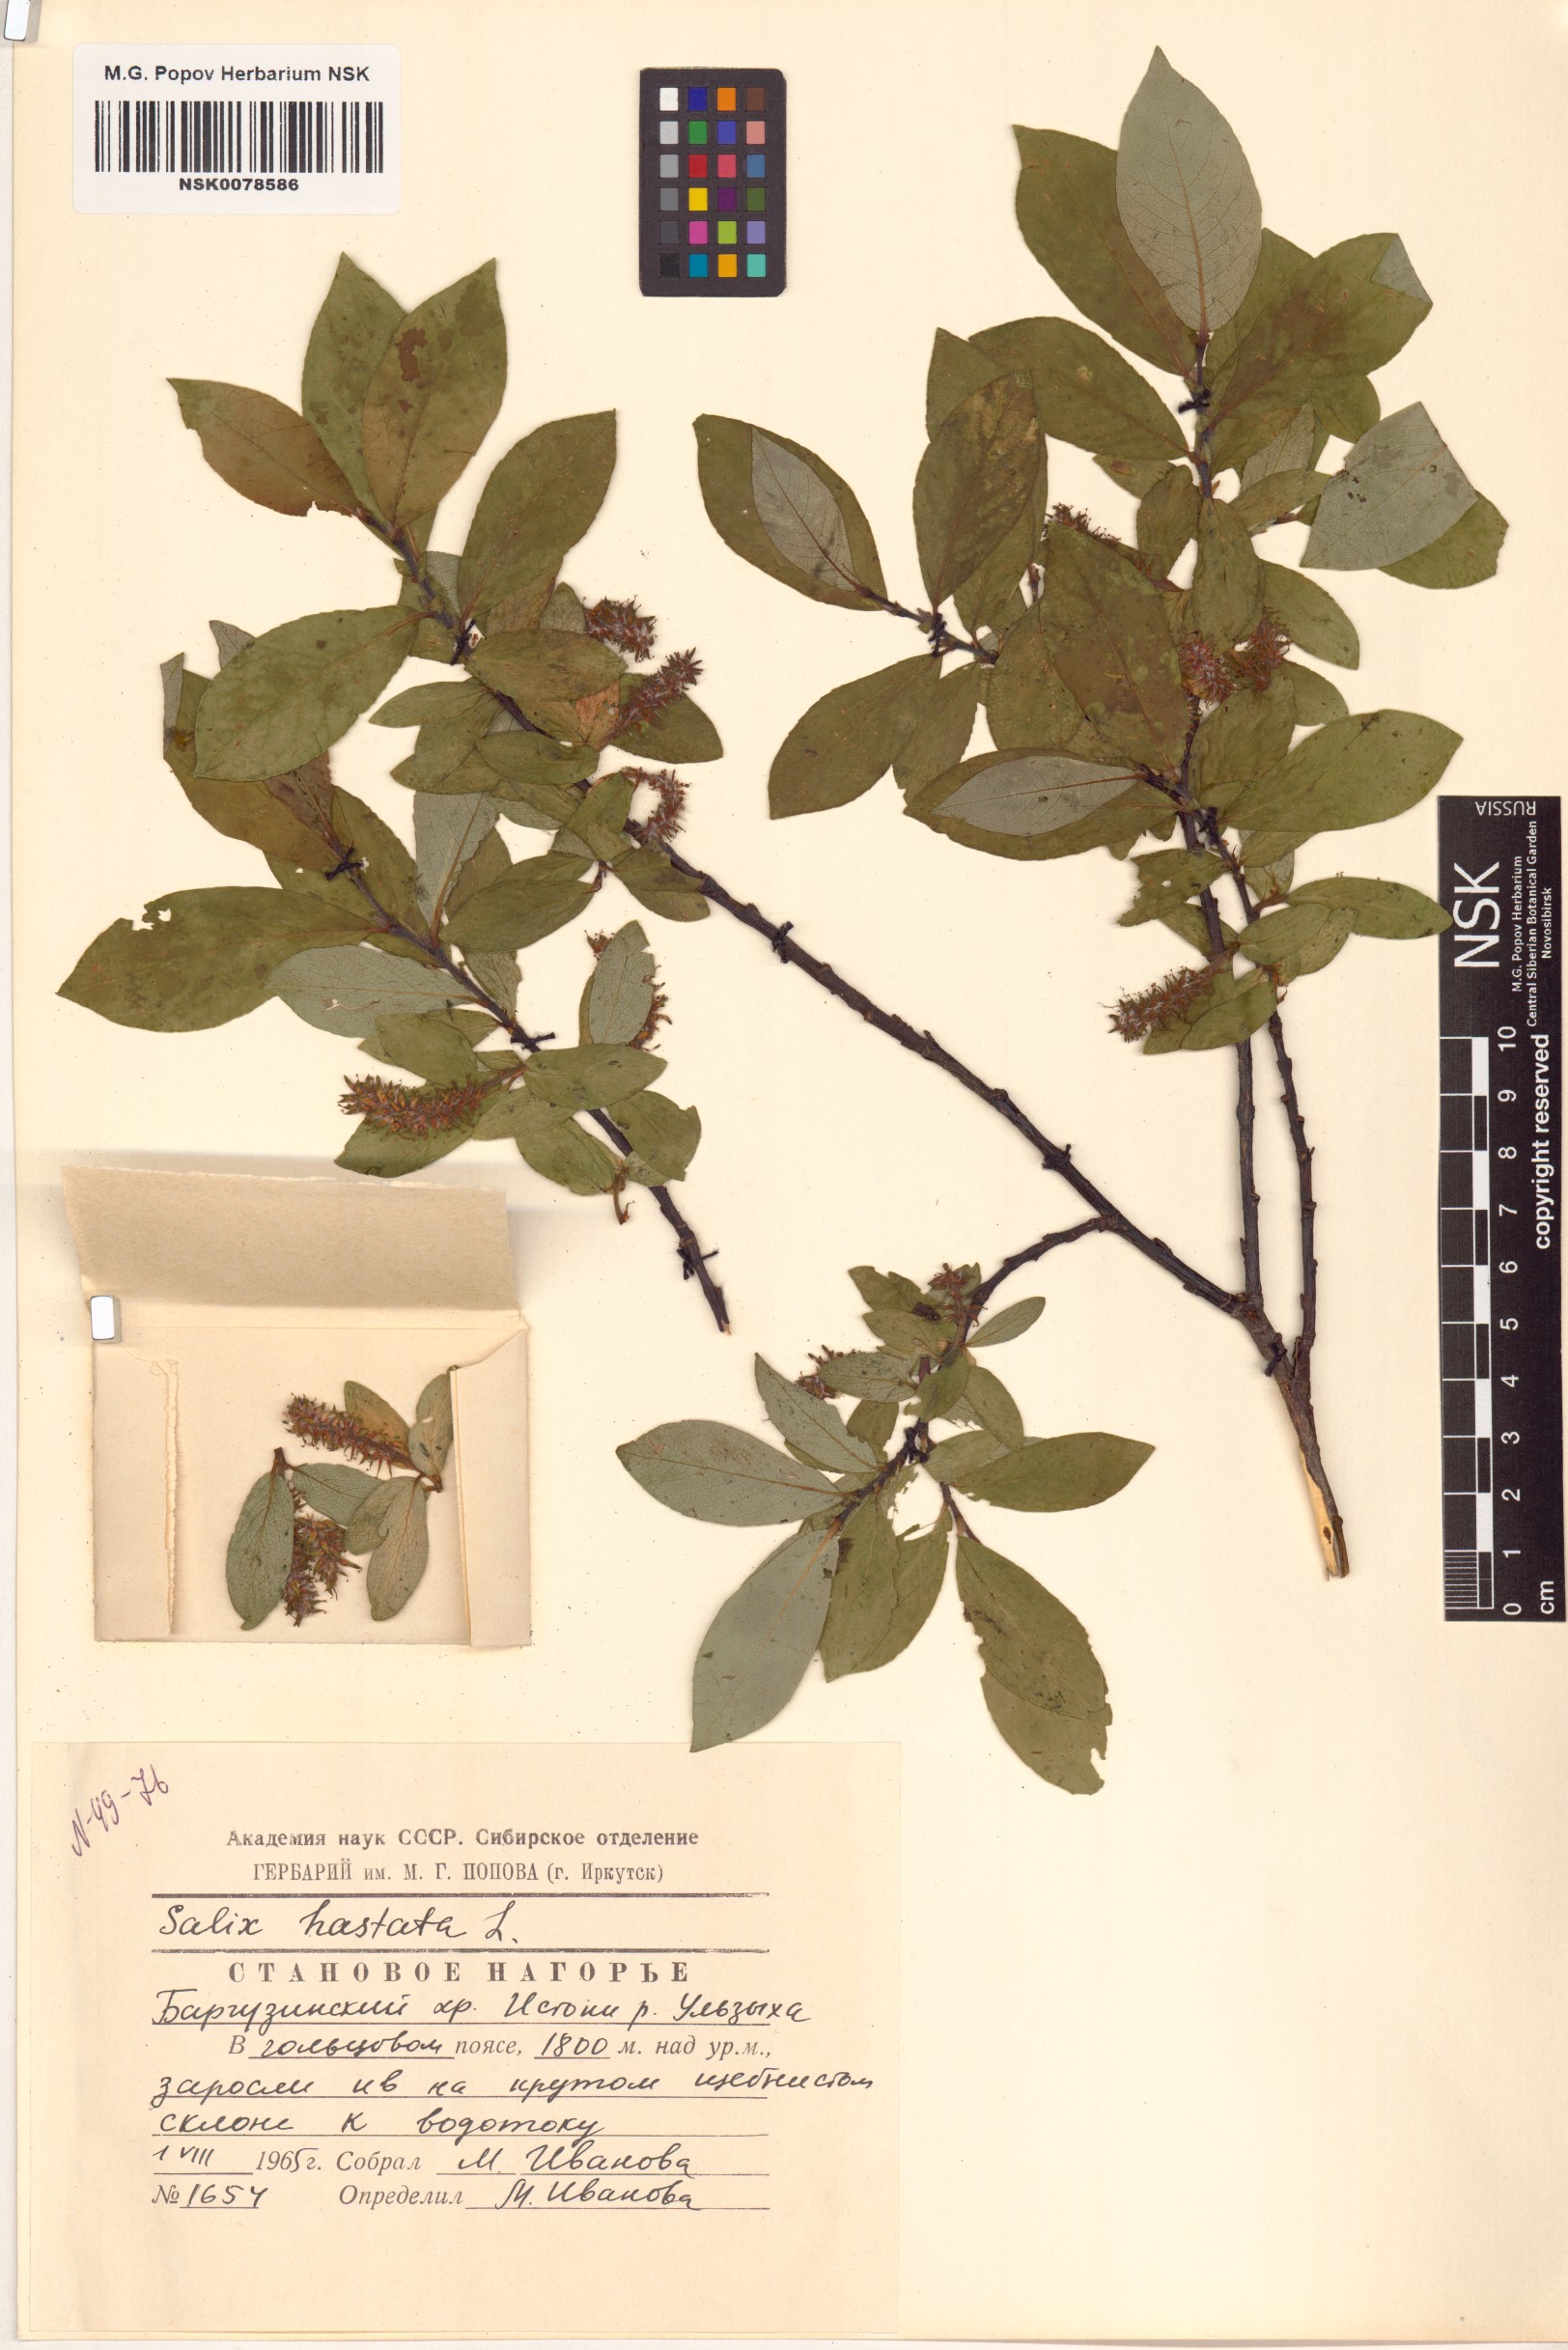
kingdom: Plantae
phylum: Tracheophyta
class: Magnoliopsida
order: Malpighiales
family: Salicaceae
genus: Salix
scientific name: Salix hastata
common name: Halberd willow
